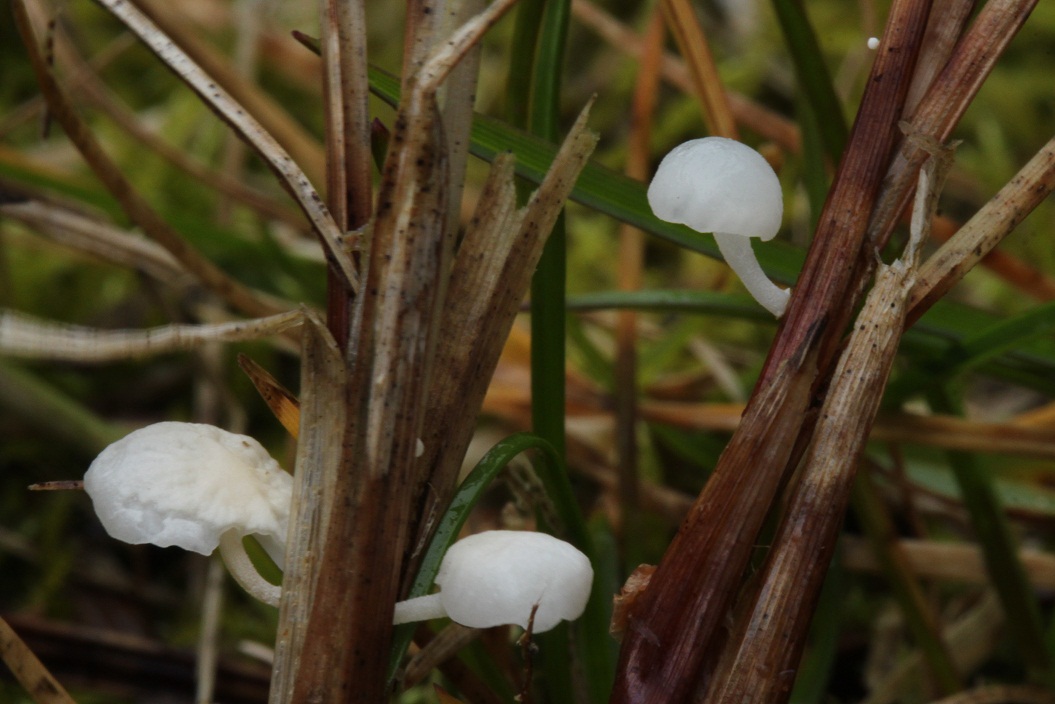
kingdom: Fungi
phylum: Basidiomycota
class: Agaricomycetes
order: Agaricales
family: Physalacriaceae
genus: Gloiocephala
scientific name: Gloiocephala caricis
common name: star-spatelhat
